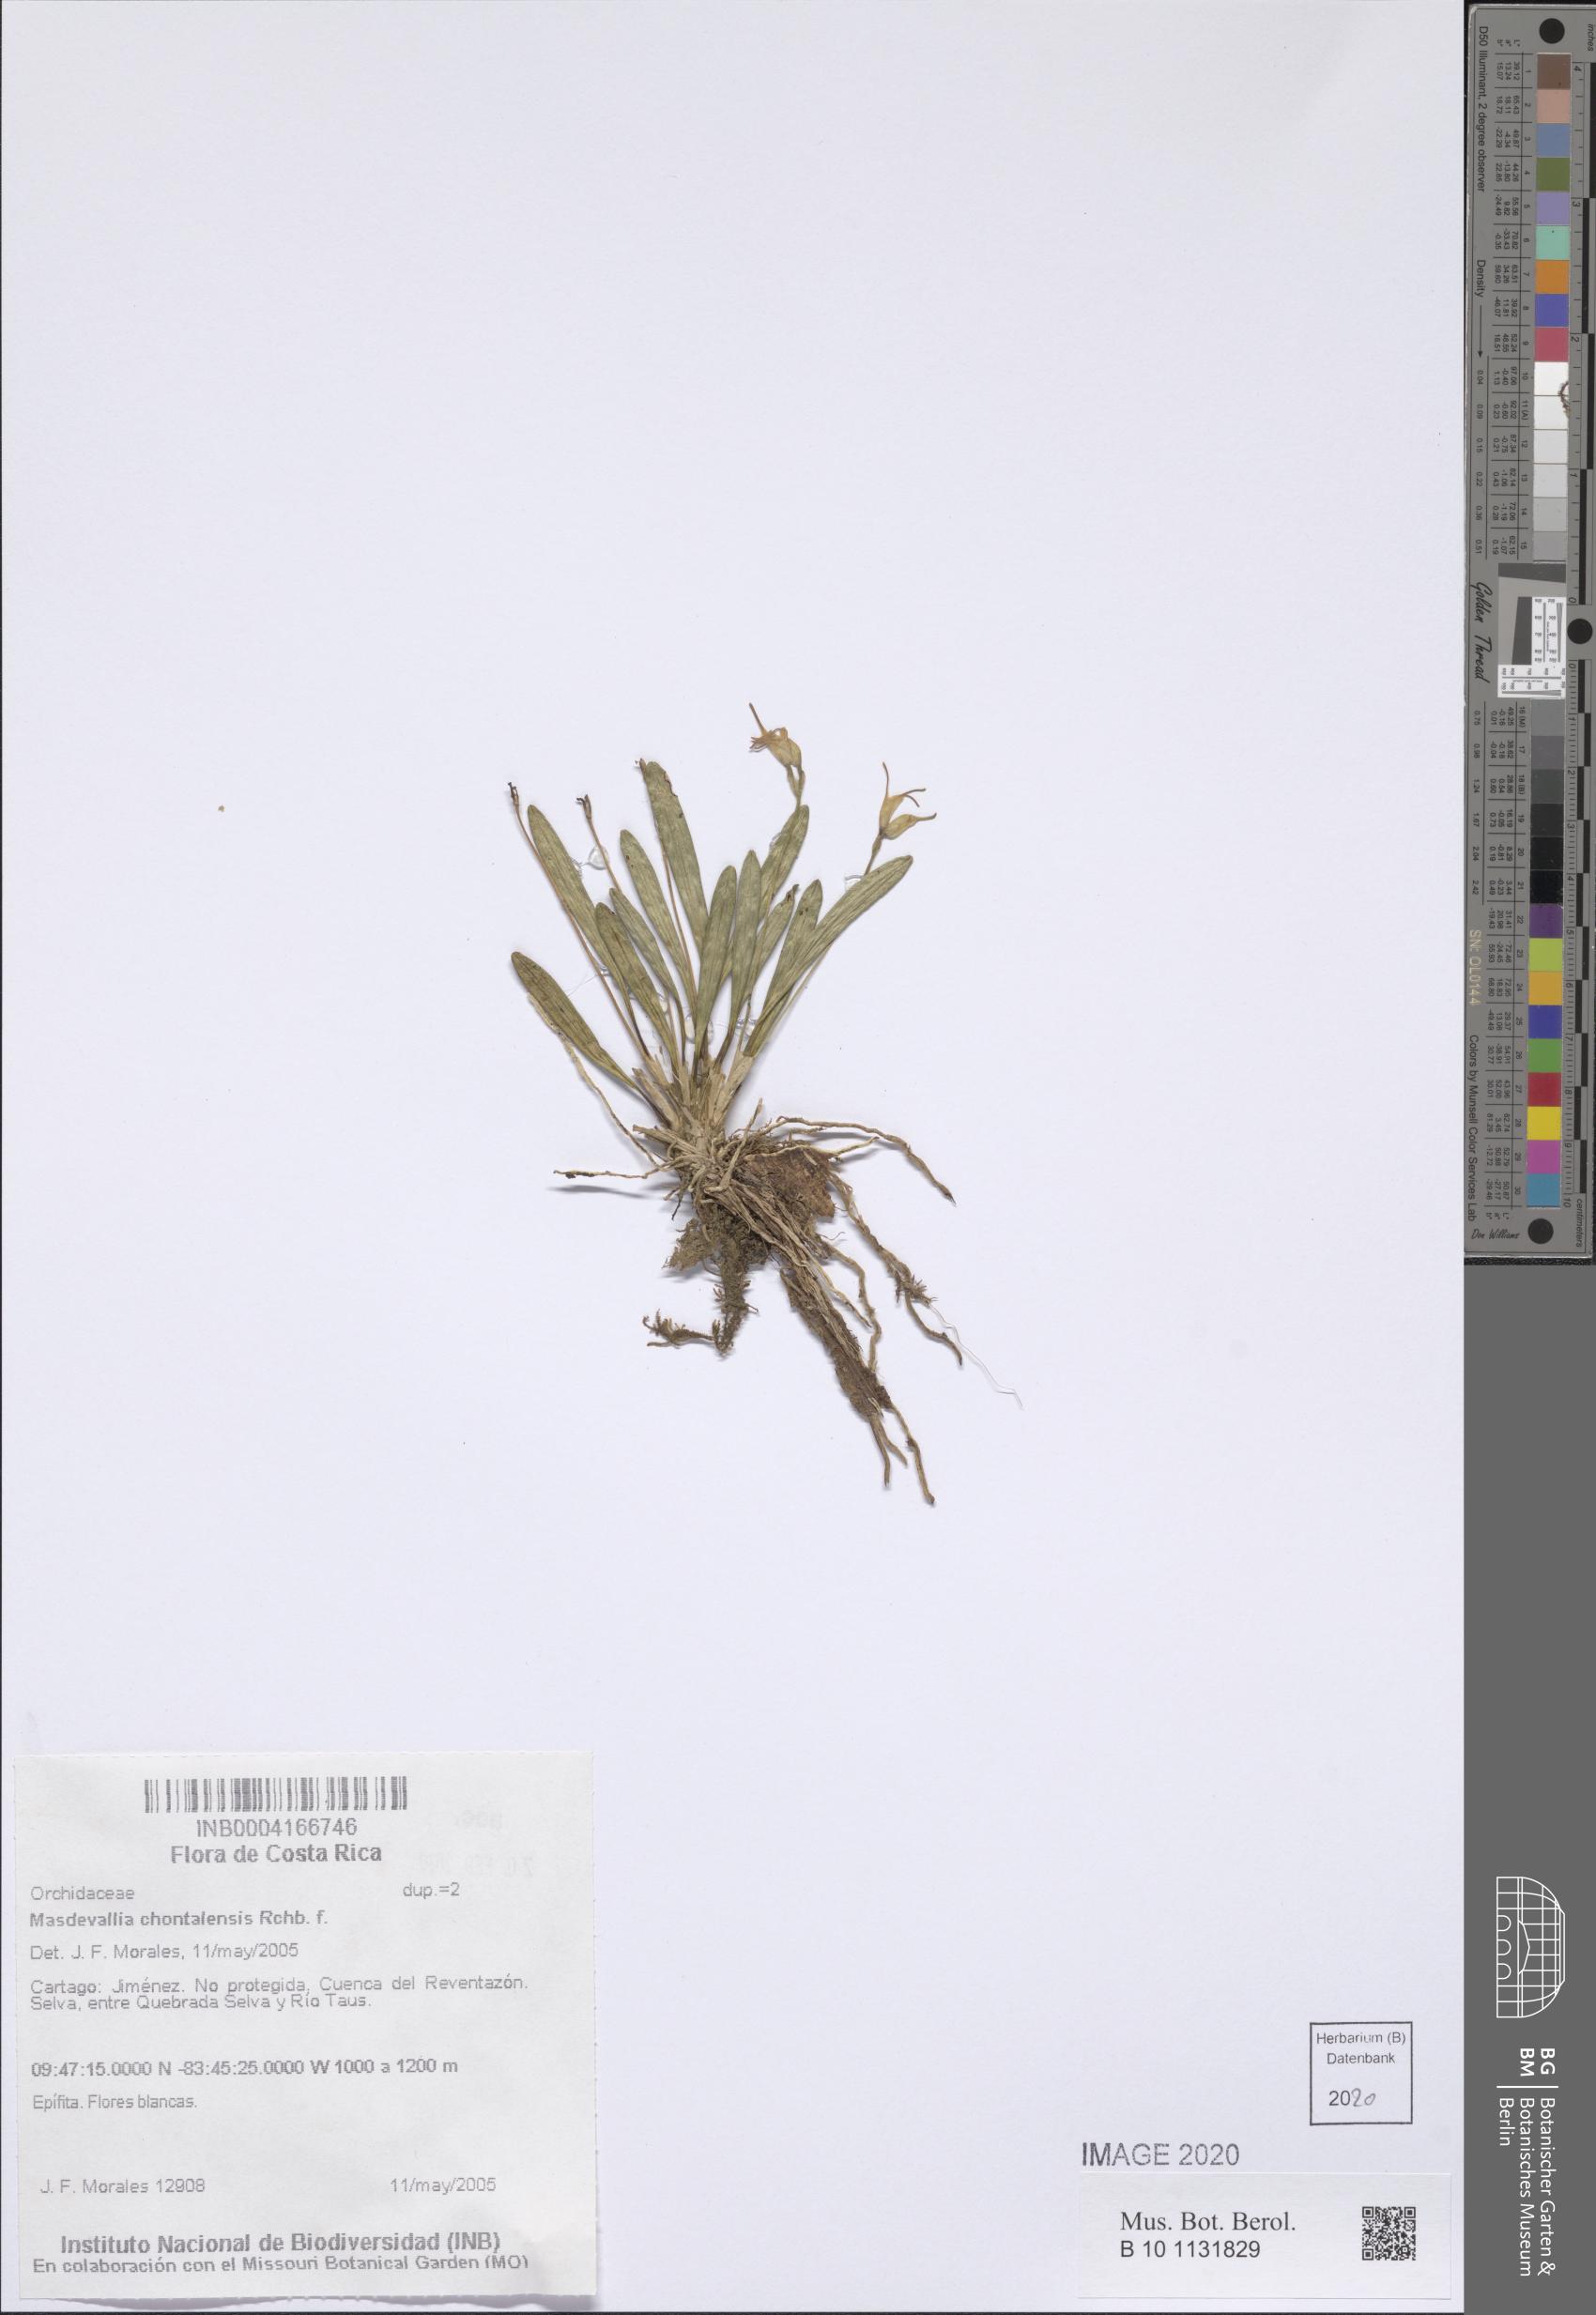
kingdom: Plantae
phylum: Tracheophyta
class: Liliopsida
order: Asparagales
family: Orchidaceae
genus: Masdevallia
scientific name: Masdevallia chontalensis
